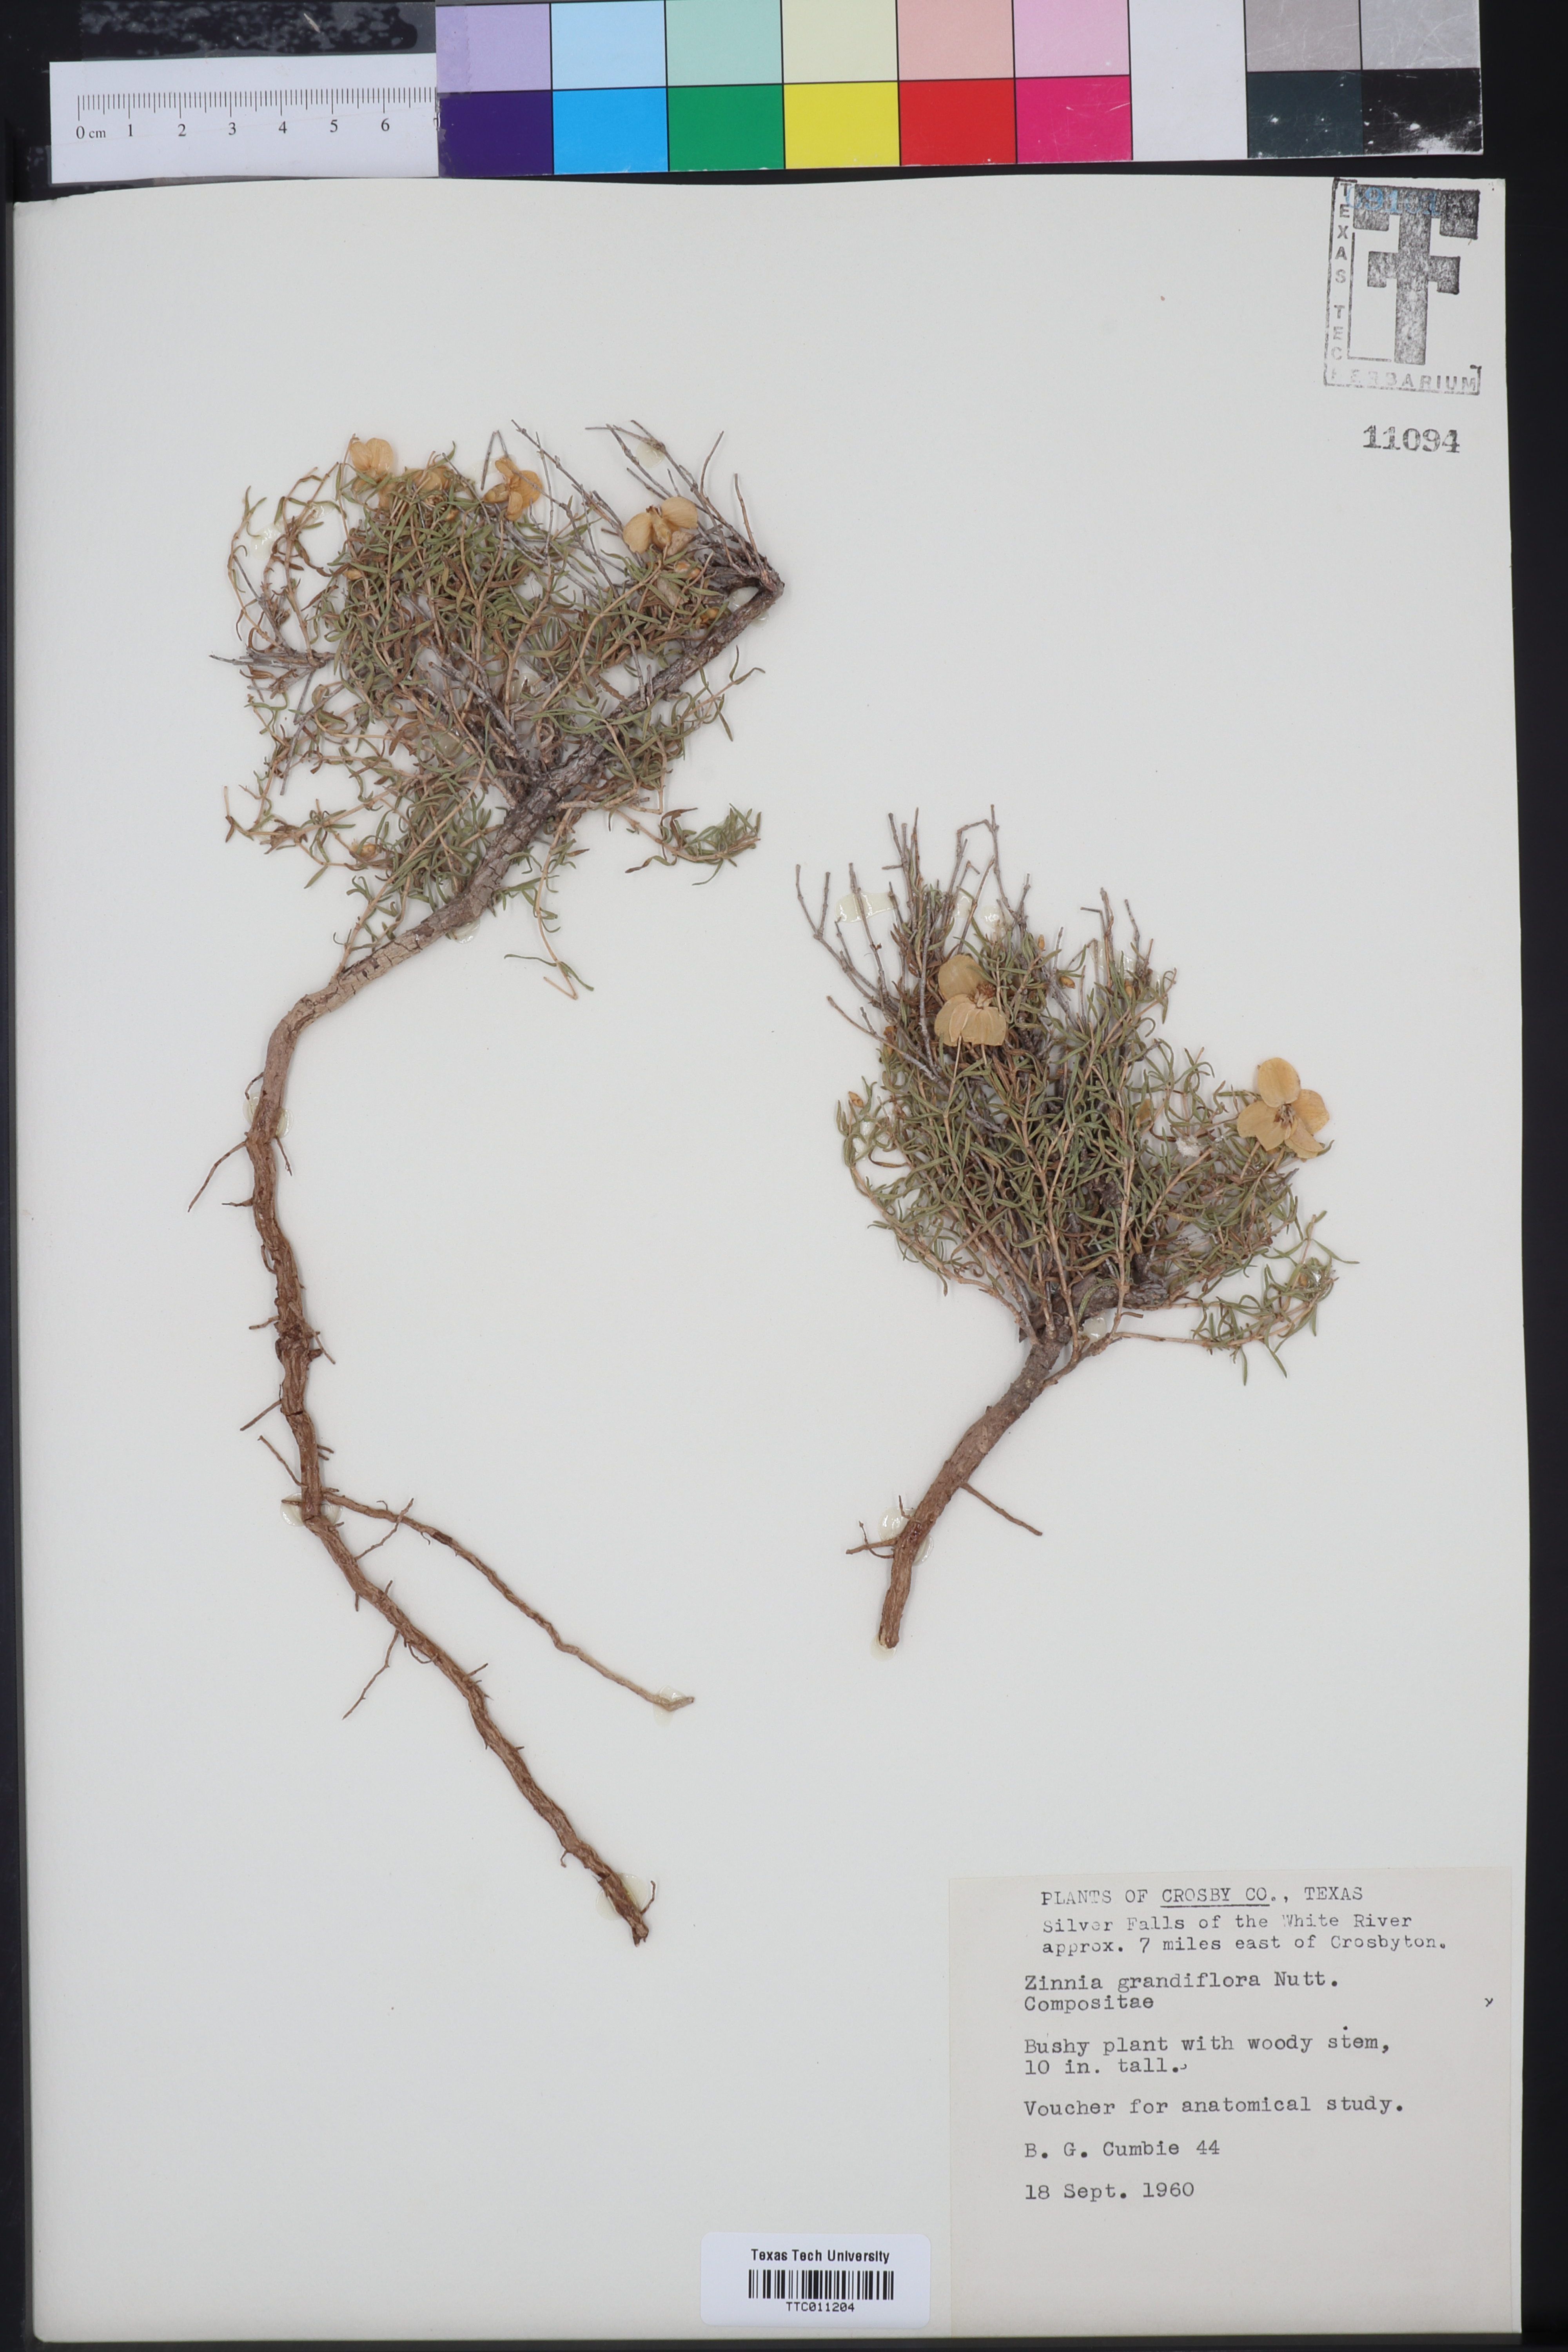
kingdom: Plantae
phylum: Tracheophyta
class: Magnoliopsida
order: Asterales
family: Asteraceae
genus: Zinnia
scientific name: Zinnia grandiflora
